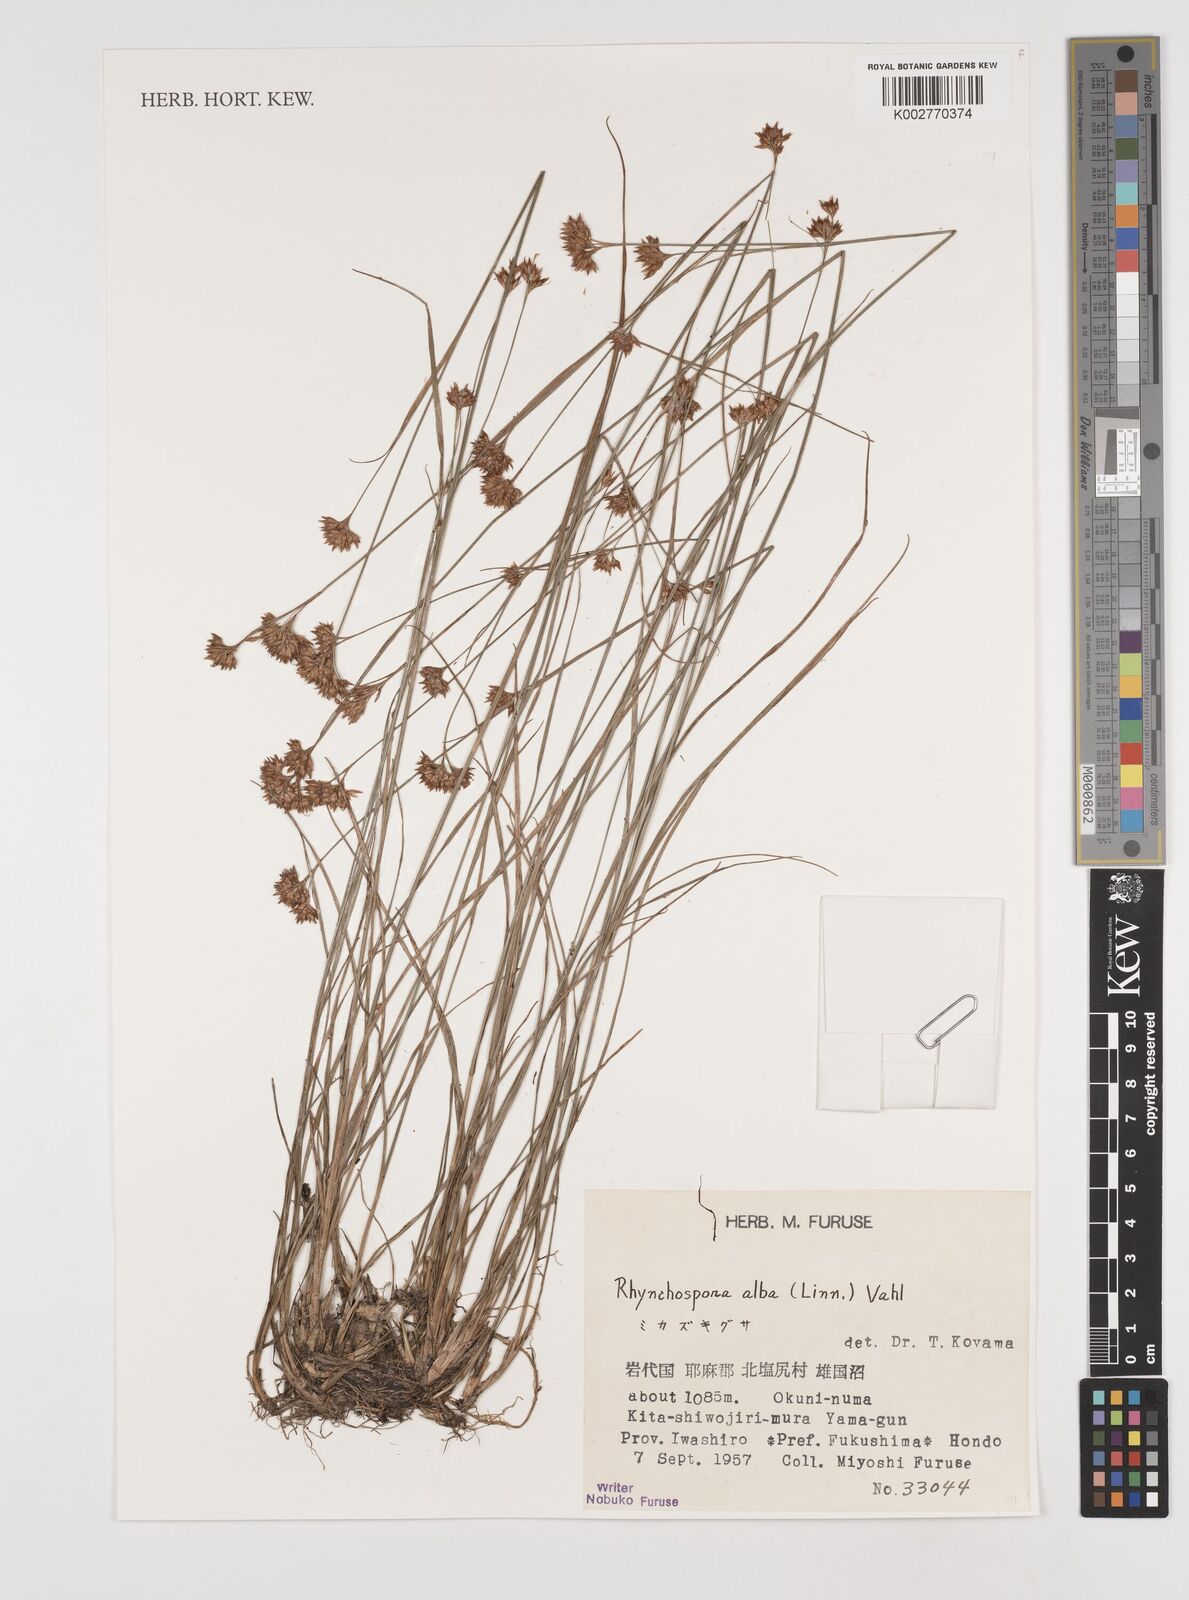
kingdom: Plantae
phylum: Tracheophyta
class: Liliopsida
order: Poales
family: Cyperaceae
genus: Rhynchospora
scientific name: Rhynchospora alba
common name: White beak-sedge
